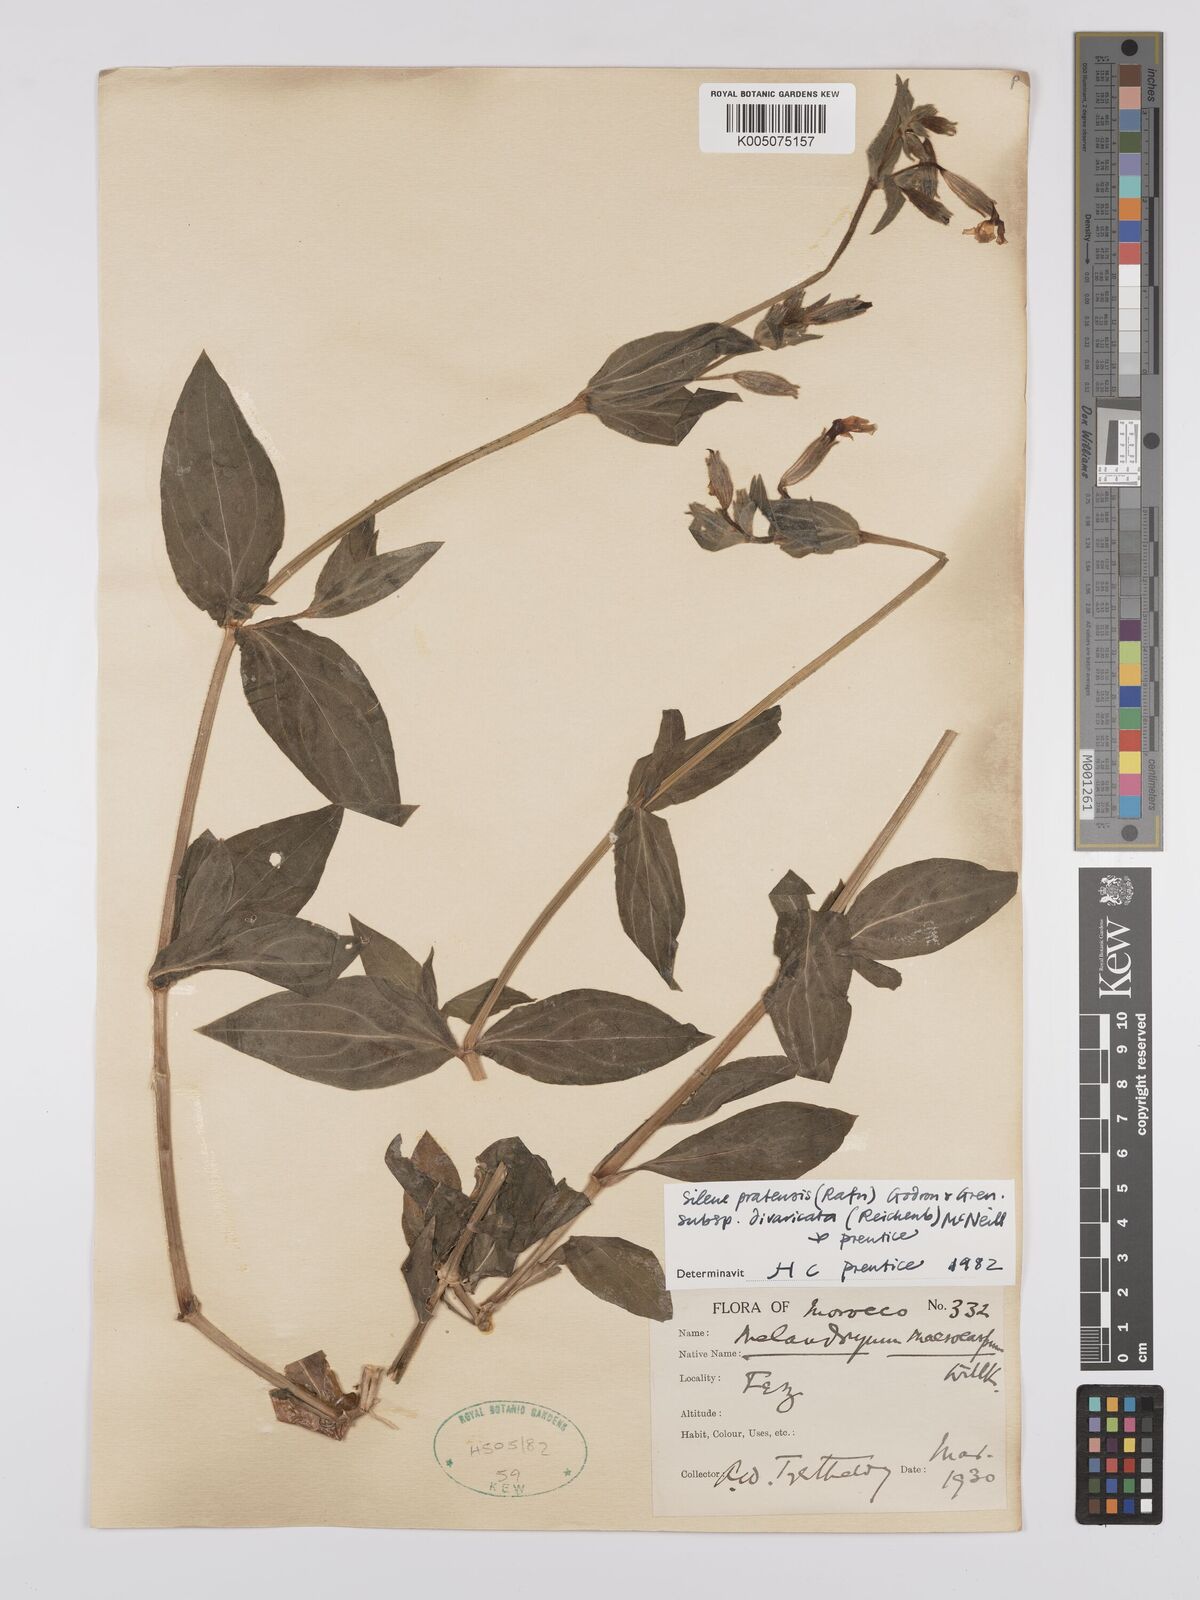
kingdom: Plantae
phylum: Tracheophyta
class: Magnoliopsida
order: Caryophyllales
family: Caryophyllaceae
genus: Silene
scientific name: Silene latifolia
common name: White campion
